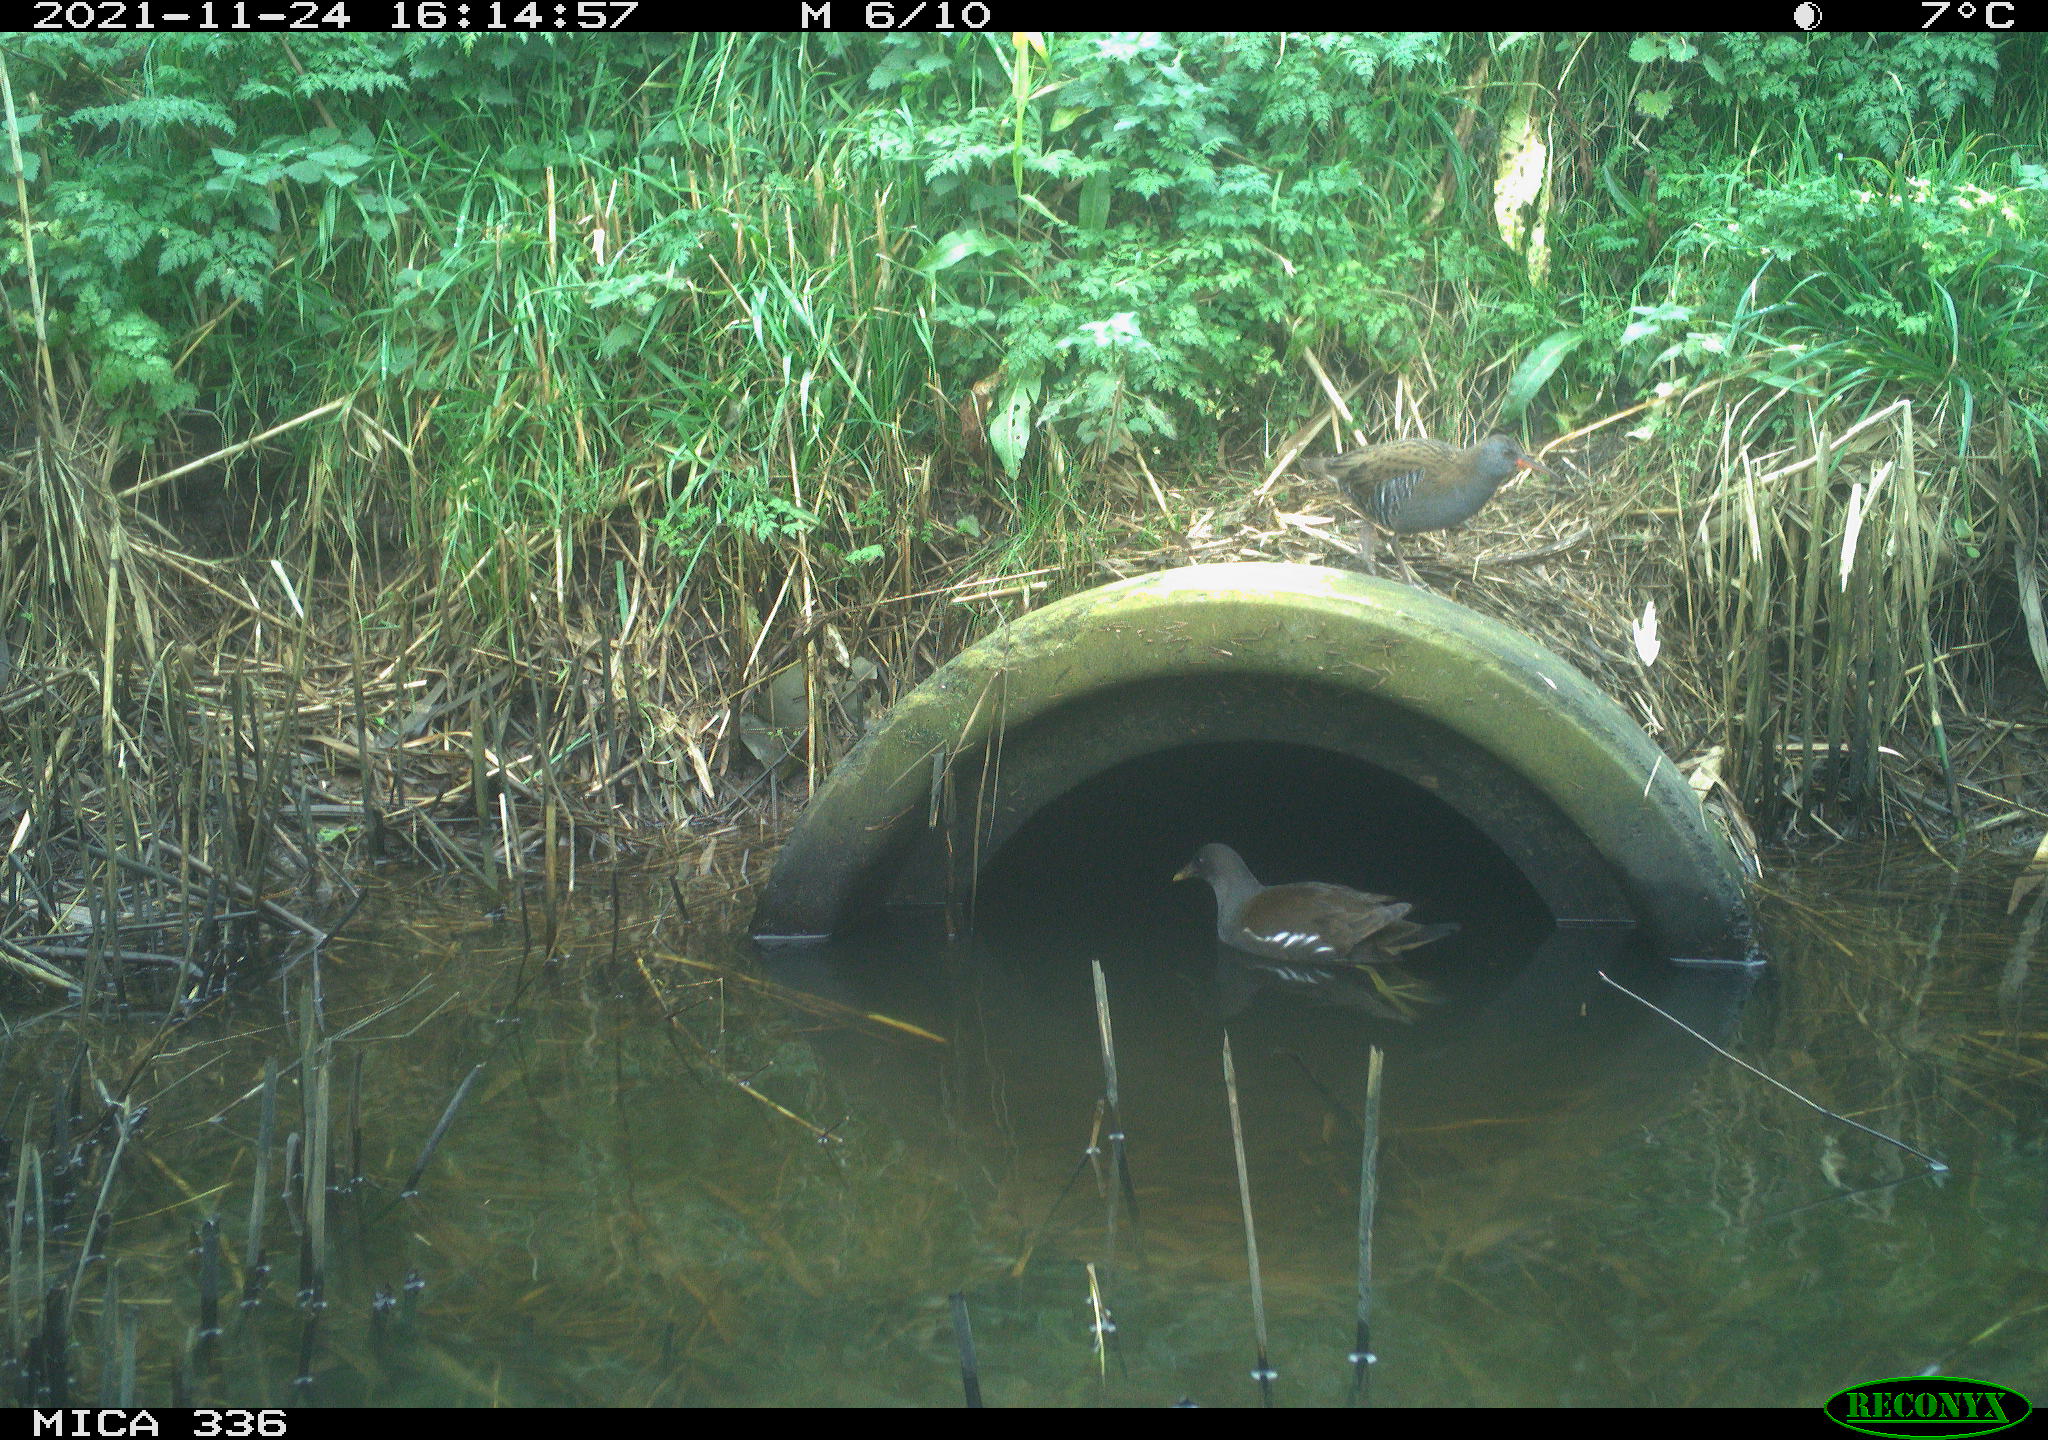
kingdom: Animalia
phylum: Chordata
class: Aves
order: Gruiformes
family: Rallidae
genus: Gallinula
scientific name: Gallinula chloropus
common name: Common moorhen
